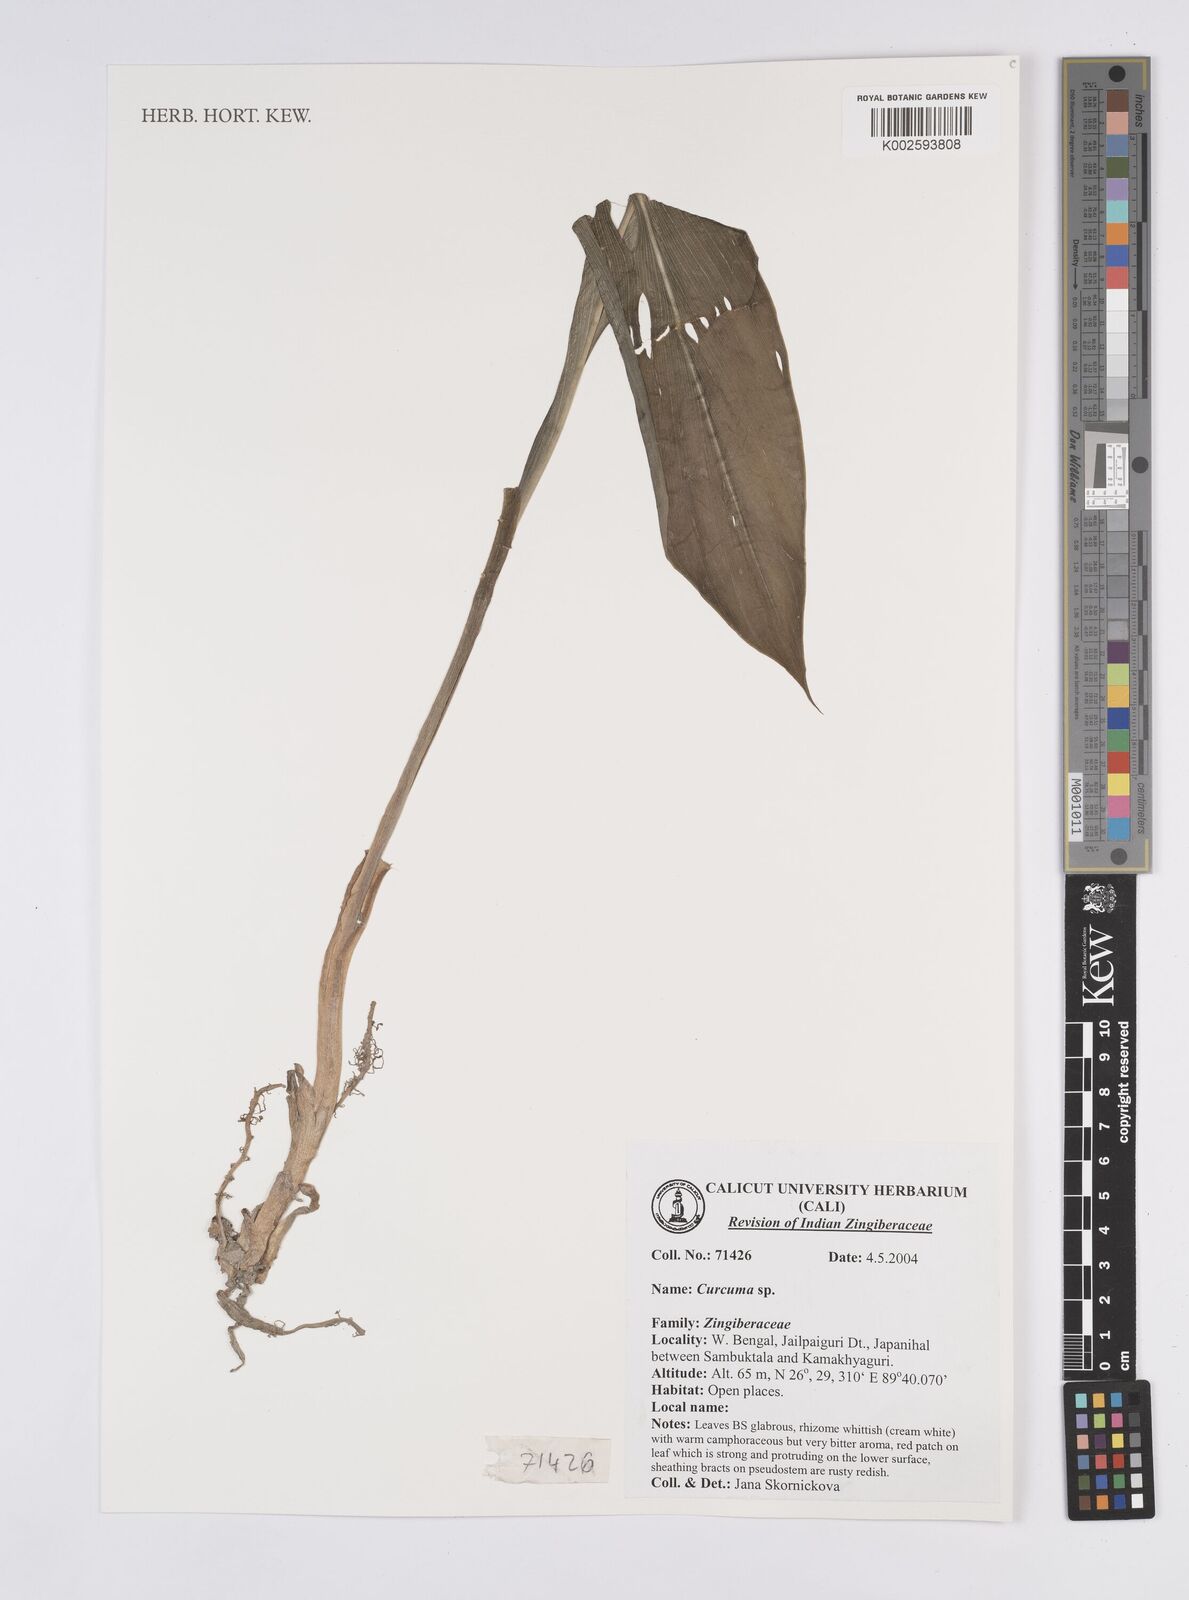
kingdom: Plantae
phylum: Tracheophyta
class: Liliopsida
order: Zingiberales
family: Zingiberaceae
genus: Curcuma
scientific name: Curcuma
